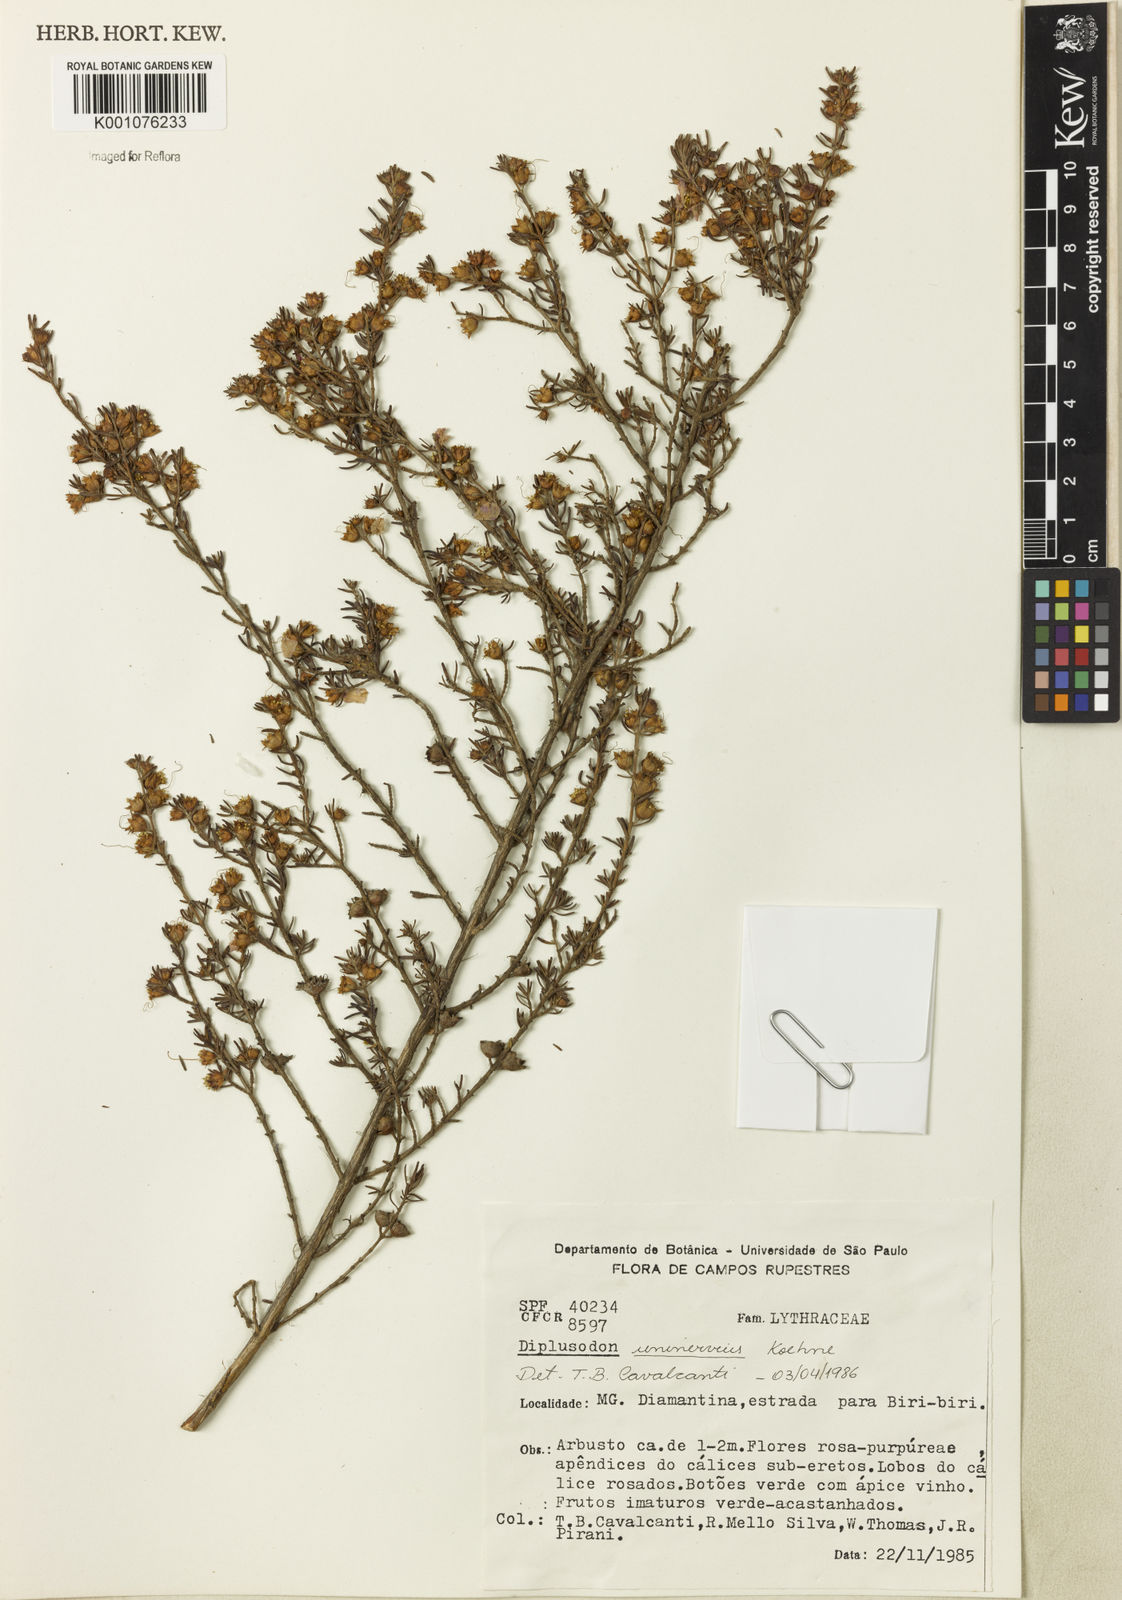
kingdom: Plantae
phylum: Tracheophyta
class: Magnoliopsida
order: Myrtales
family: Lythraceae
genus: Diplusodon
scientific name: Diplusodon uninervius
